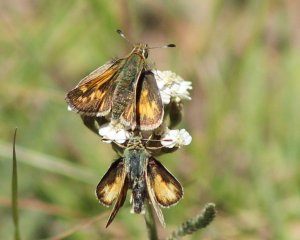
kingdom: Animalia
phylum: Arthropoda
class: Insecta
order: Lepidoptera
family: Hesperiidae
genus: Polites
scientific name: Polites sabuleti
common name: Sandhill Skipper
